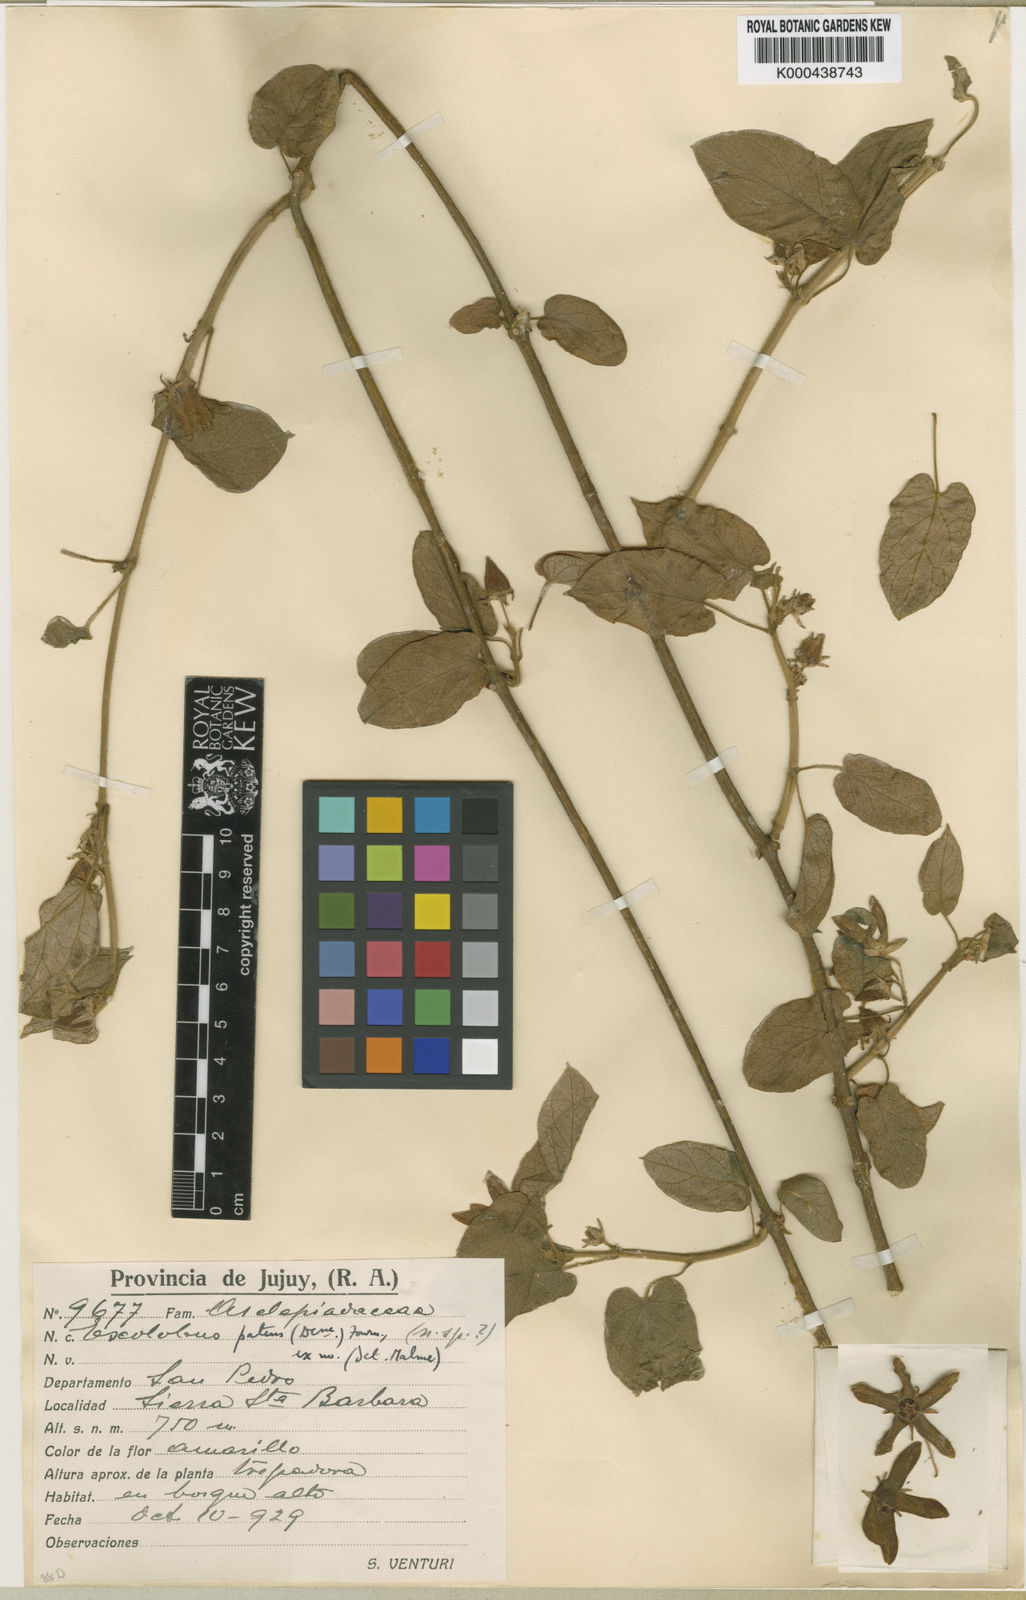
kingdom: Plantae
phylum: Tracheophyta
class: Magnoliopsida
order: Gentianales
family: Apocynaceae
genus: Gonolobus
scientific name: Gonolobus
